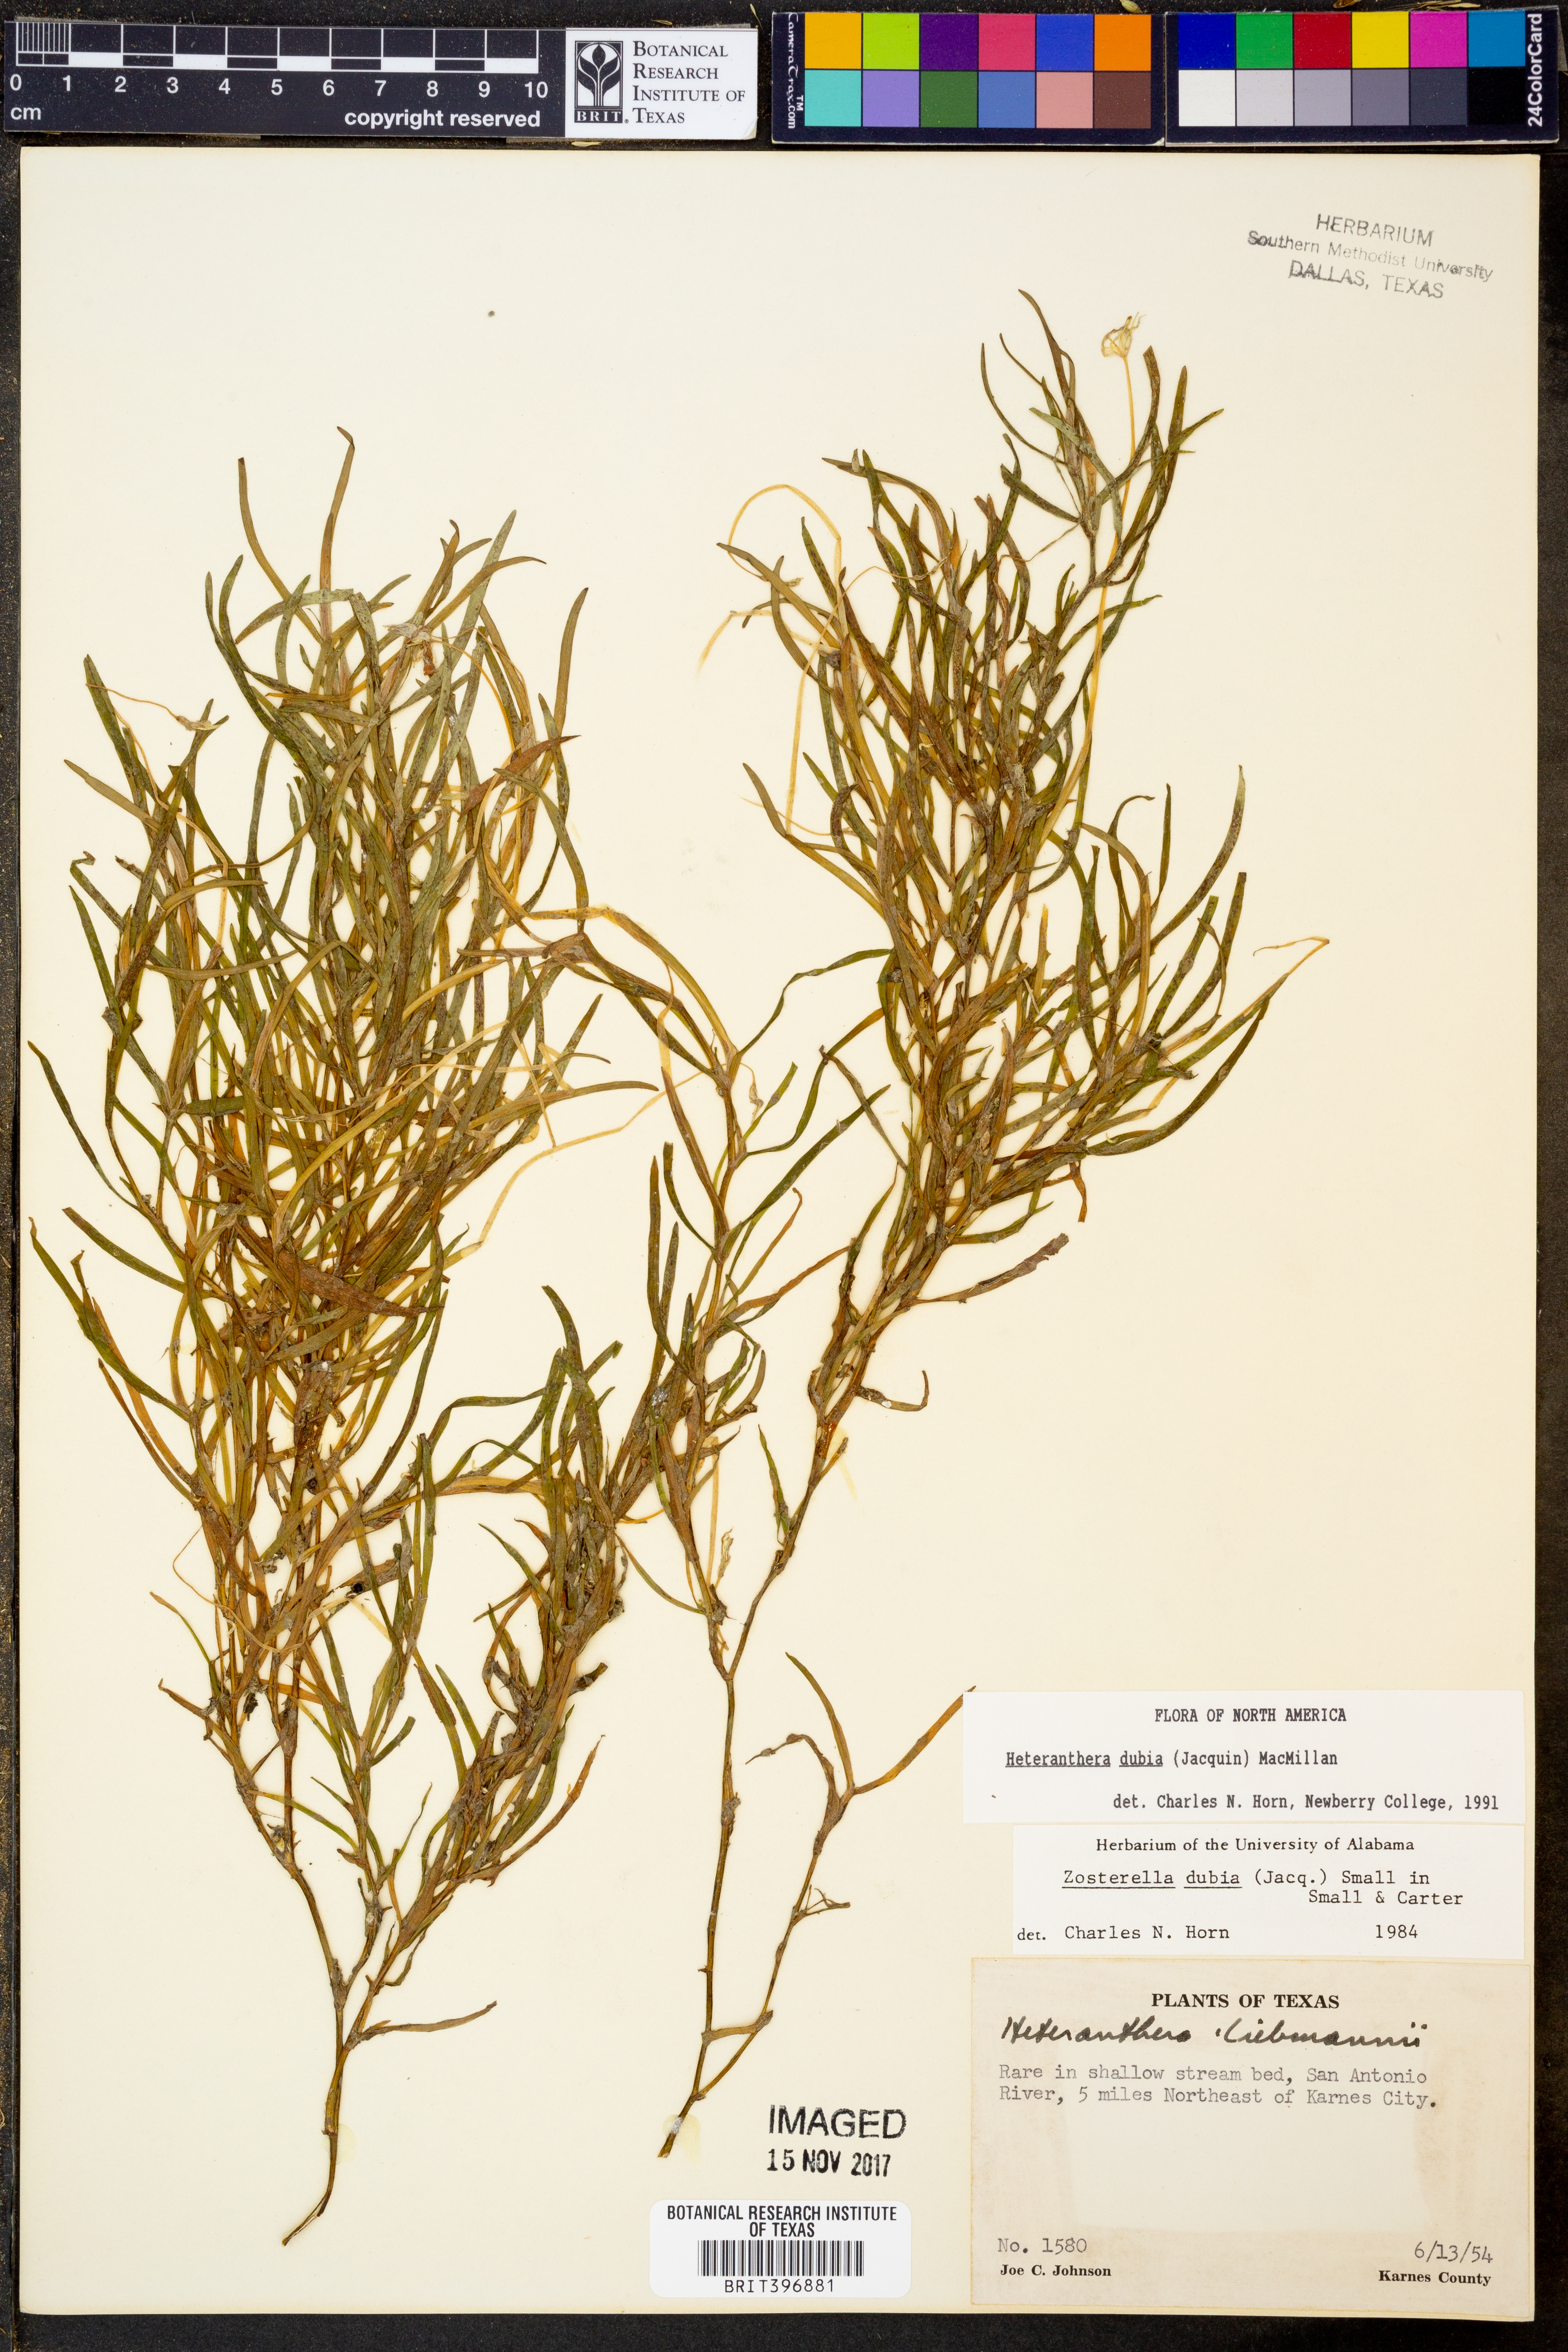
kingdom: Plantae
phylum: Tracheophyta
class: Liliopsida
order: Commelinales
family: Pontederiaceae
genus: Heteranthera
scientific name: Heteranthera dubia
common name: Grass-leaved mud plantain
